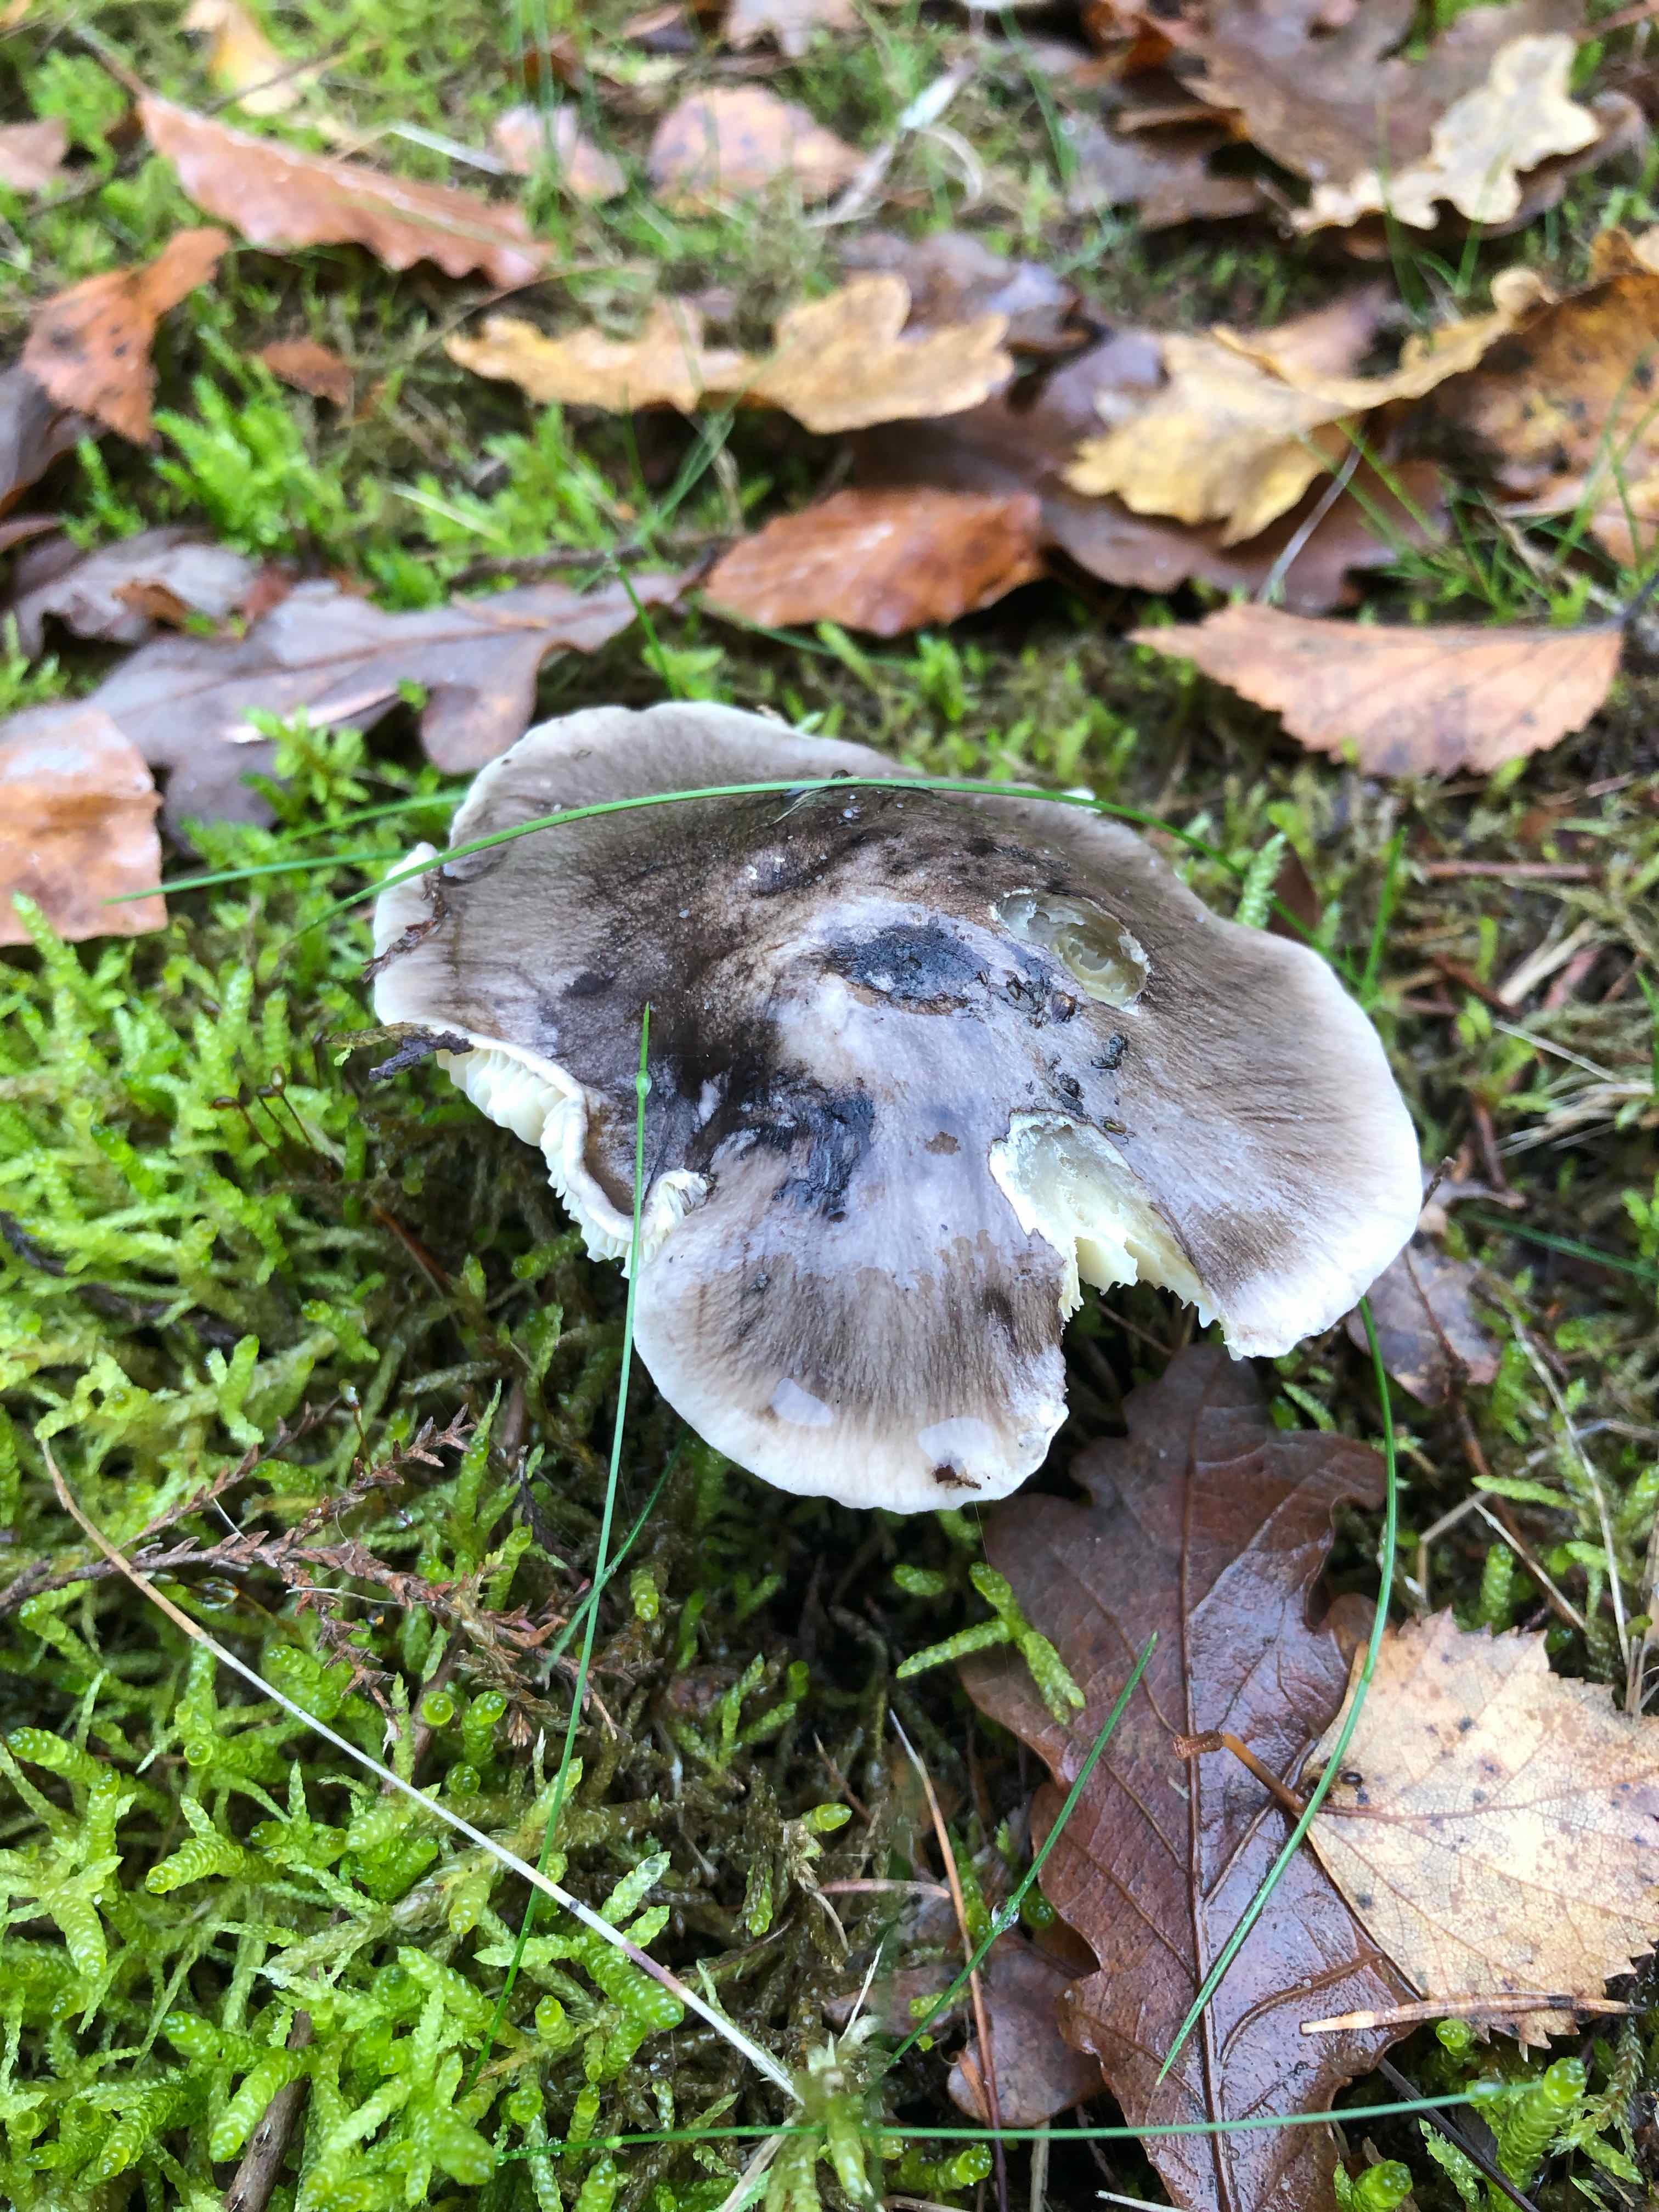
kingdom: Fungi
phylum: Basidiomycota
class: Agaricomycetes
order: Agaricales
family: Tricholomataceae
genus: Tricholoma
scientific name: Tricholoma portentosum
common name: grå ridderhat
